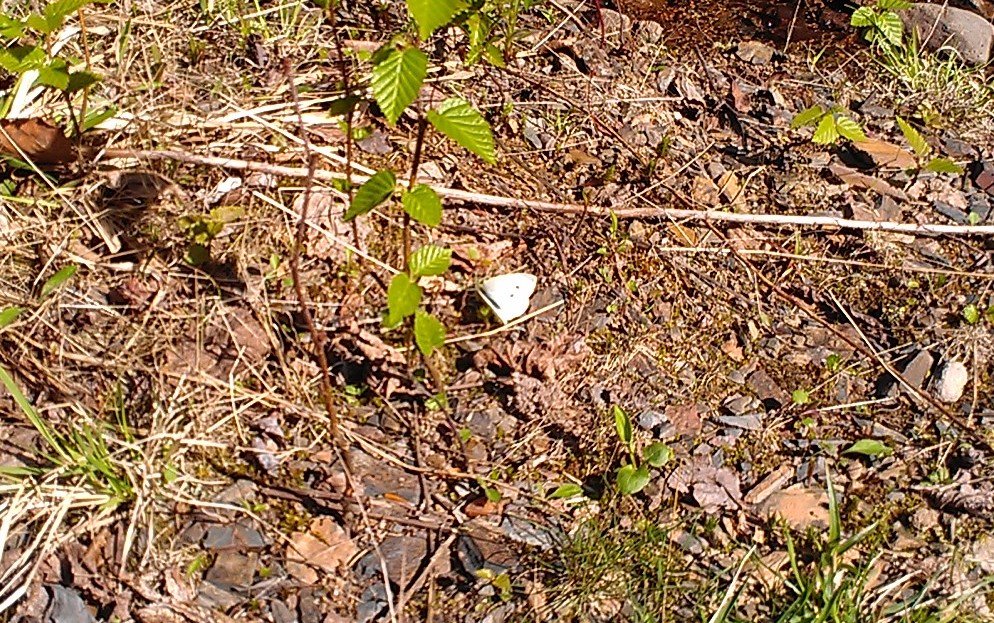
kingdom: Animalia
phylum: Arthropoda
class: Insecta
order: Lepidoptera
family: Pieridae
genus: Pieris
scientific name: Pieris rapae
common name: Cabbage White
